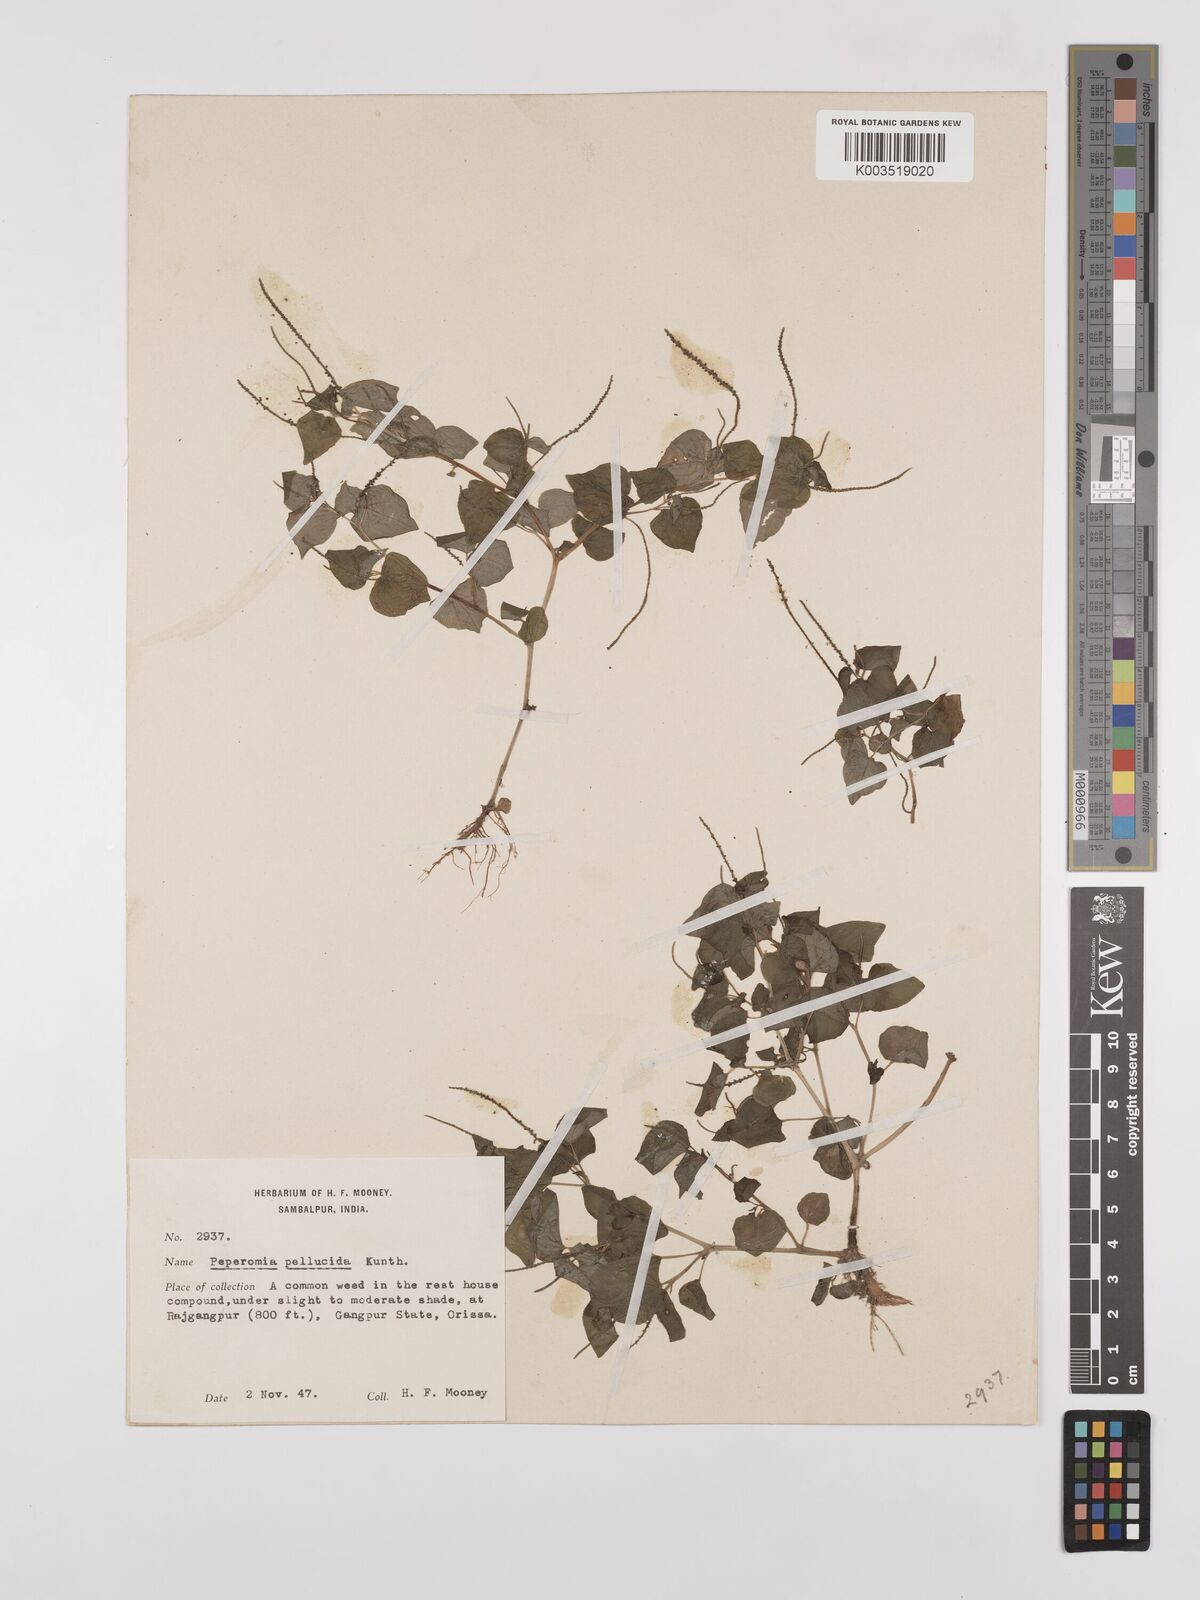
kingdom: Plantae
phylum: Tracheophyta
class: Magnoliopsida
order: Piperales
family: Piperaceae
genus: Peperomia
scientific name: Peperomia pellucida
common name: Man to man
